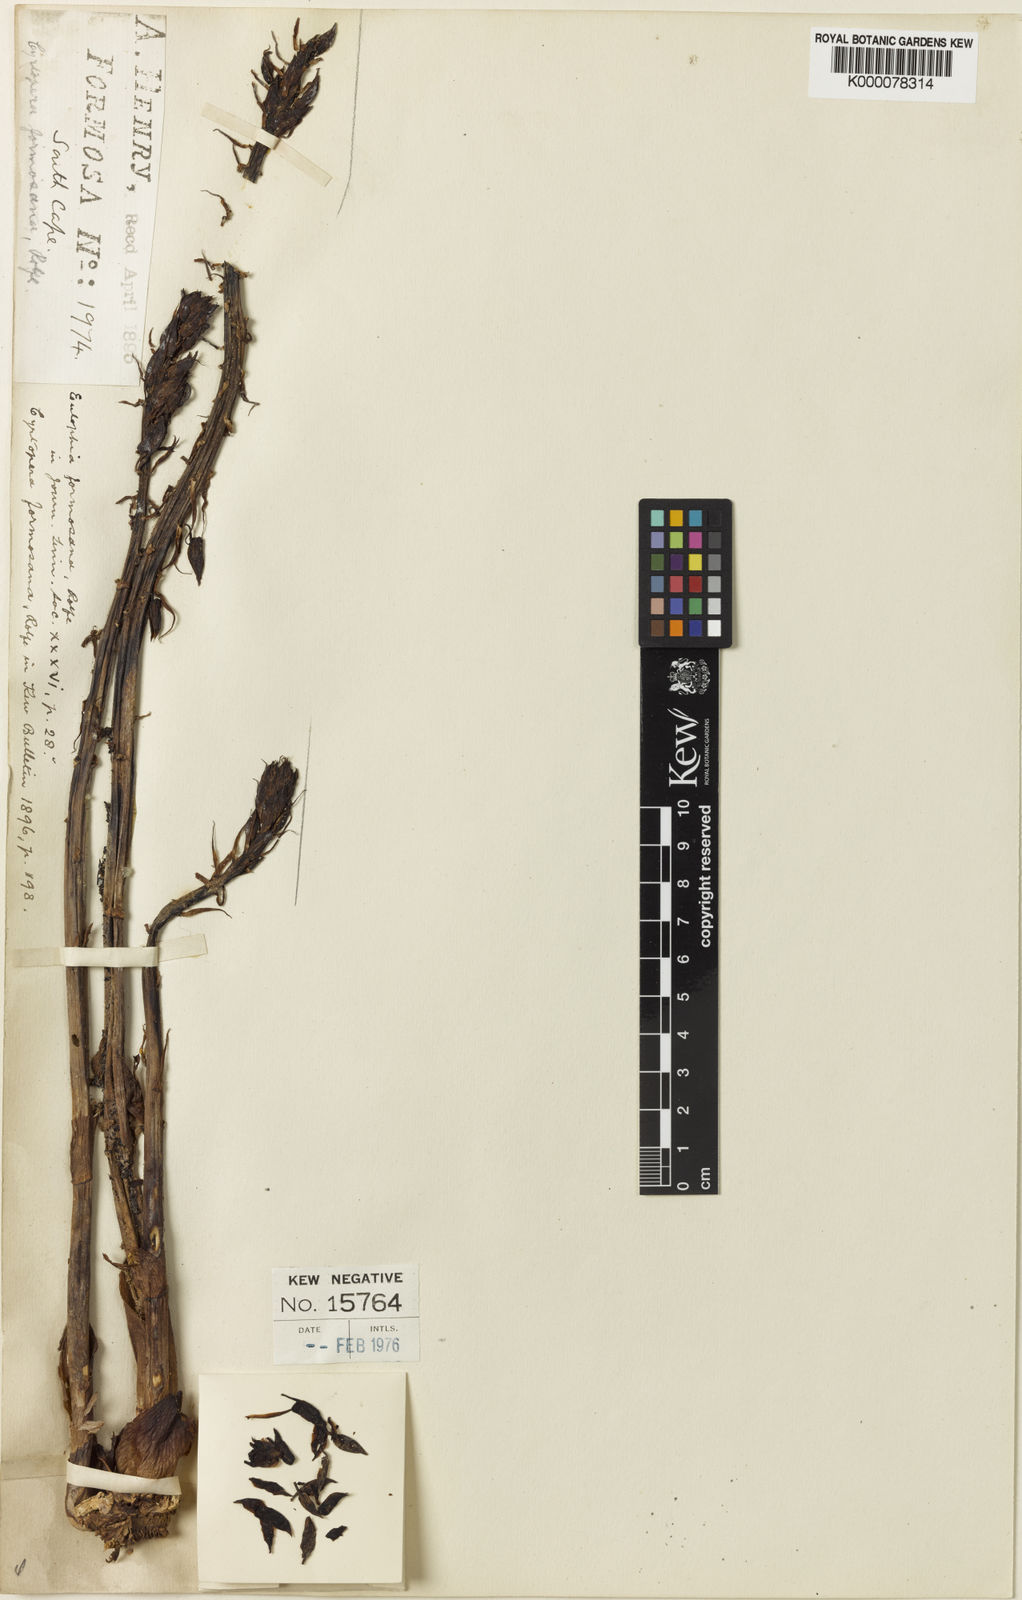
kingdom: Plantae
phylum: Tracheophyta
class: Liliopsida
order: Asparagales
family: Orchidaceae
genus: Eulophia
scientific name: Eulophia zollingeri
